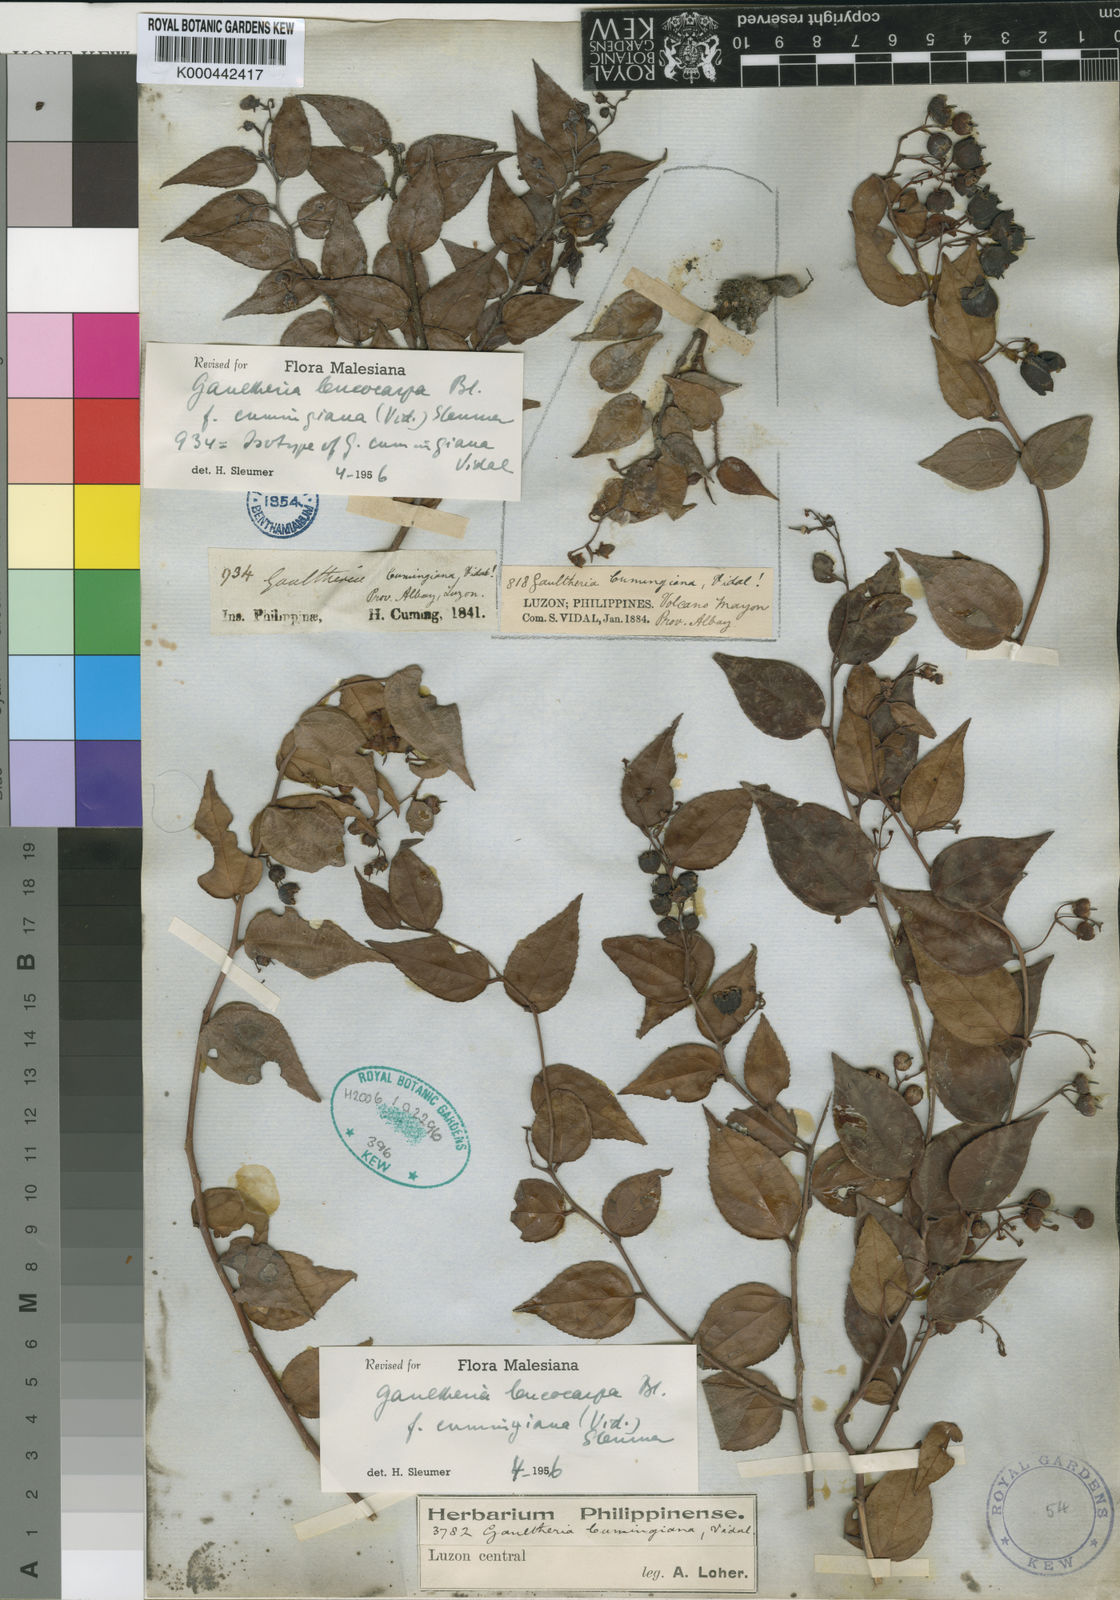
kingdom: Plantae
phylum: Tracheophyta
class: Magnoliopsida
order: Ericales
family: Ericaceae
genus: Gaultheria
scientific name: Gaultheria leucocarpa
